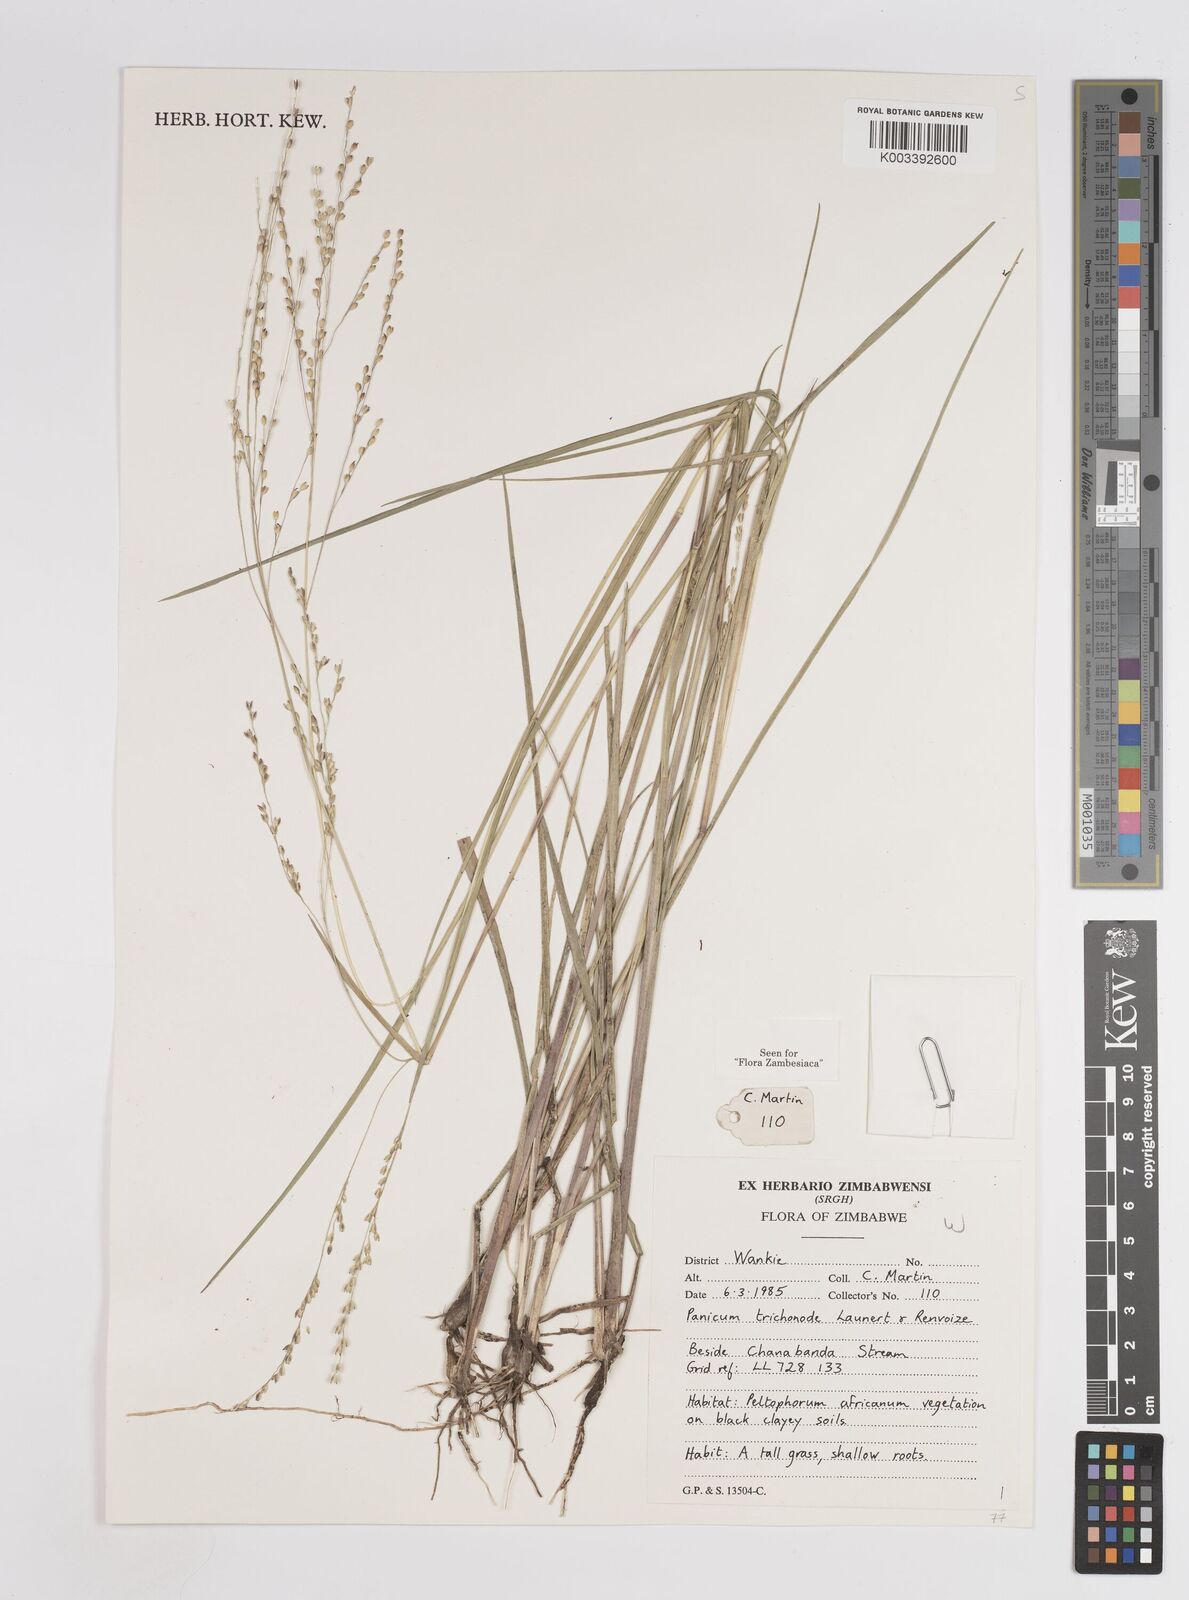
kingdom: Plantae
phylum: Tracheophyta
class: Liliopsida
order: Poales
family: Poaceae
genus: Panicum
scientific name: Panicum trichonode
